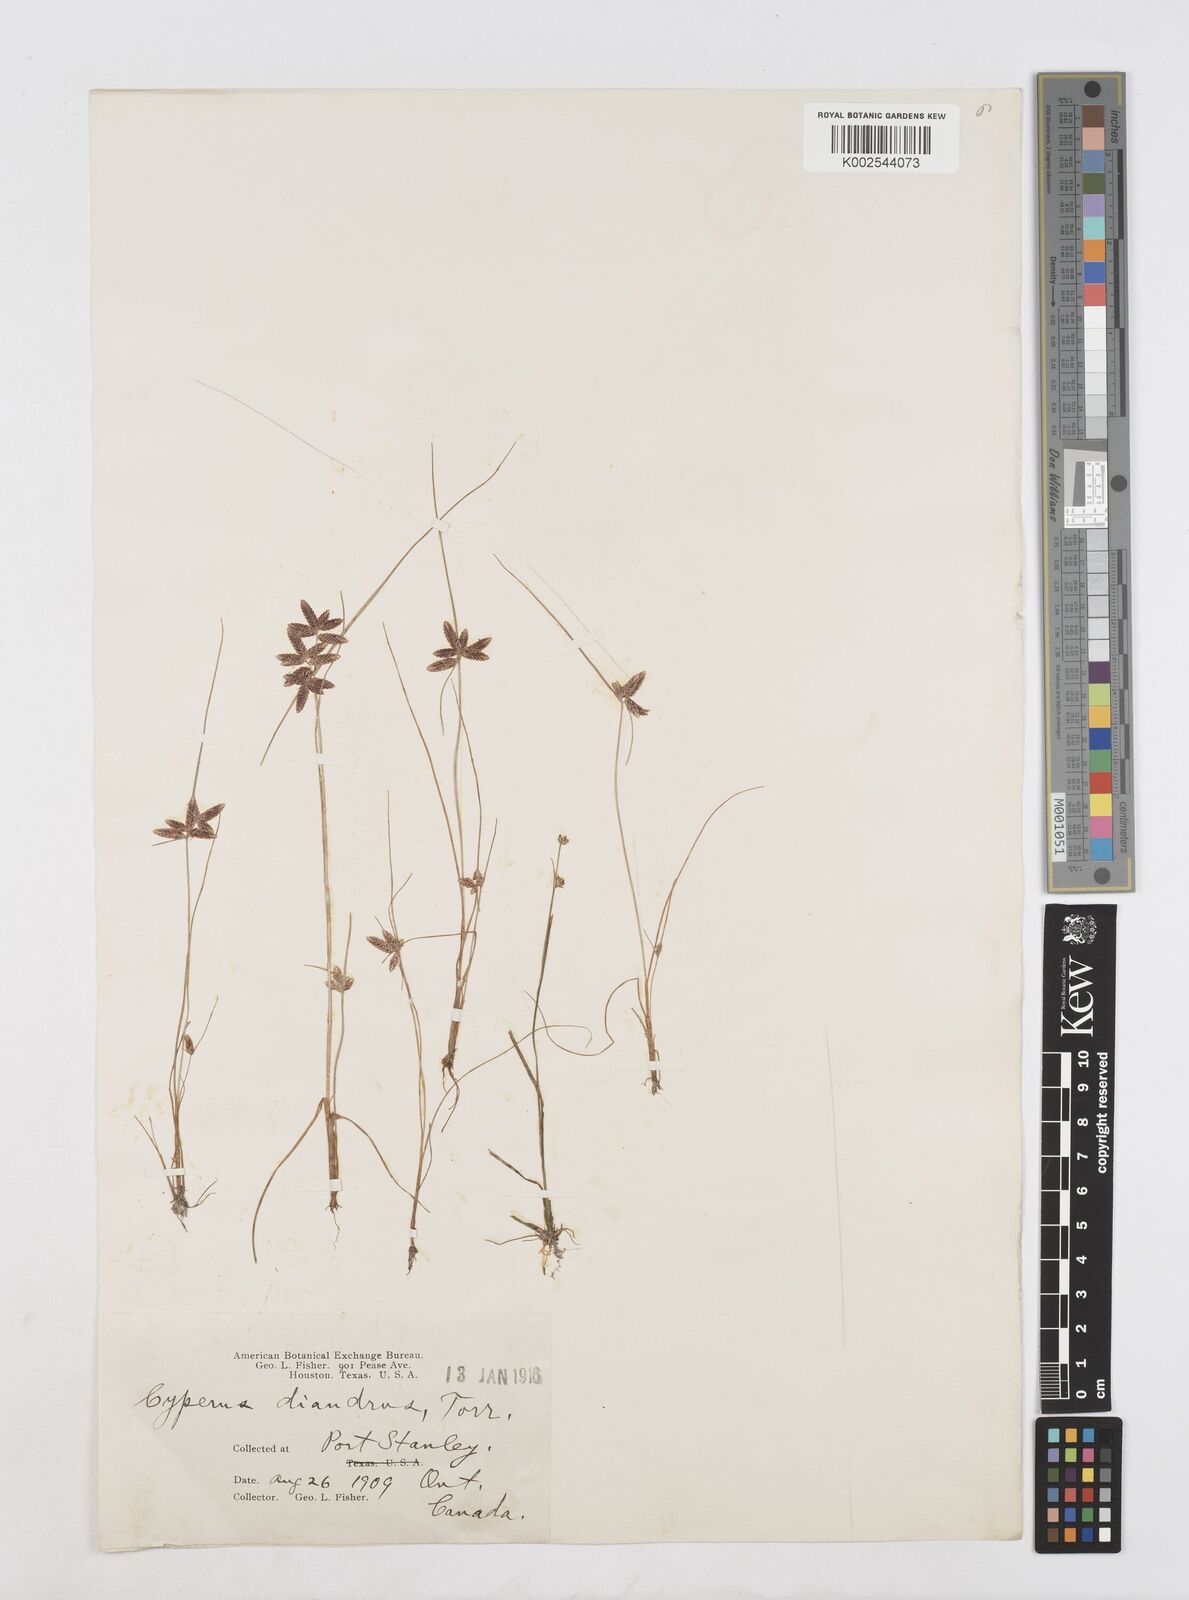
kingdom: Plantae
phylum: Tracheophyta
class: Liliopsida
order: Poales
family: Cyperaceae
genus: Cyperus
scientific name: Cyperus diandrus
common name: Low cyperus
